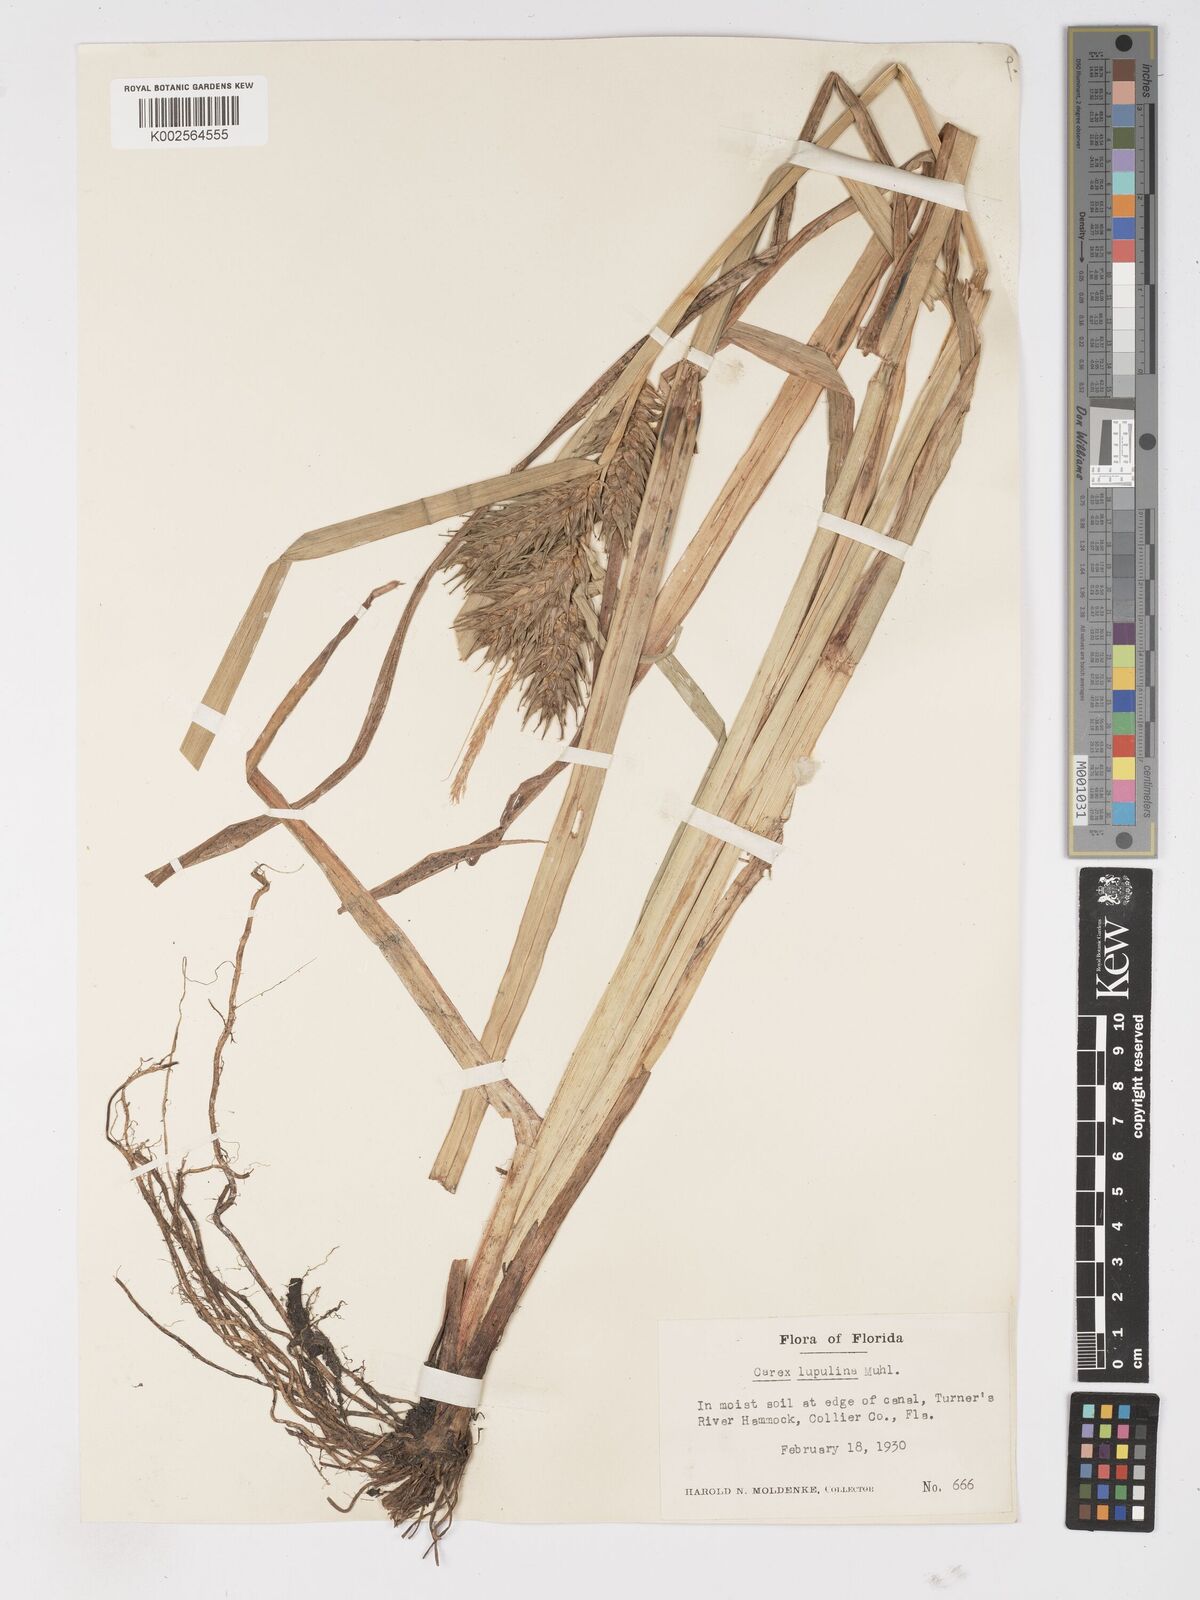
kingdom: Plantae
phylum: Tracheophyta
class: Liliopsida
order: Poales
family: Cyperaceae
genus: Carex
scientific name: Carex lupulina
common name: Hop sedge
